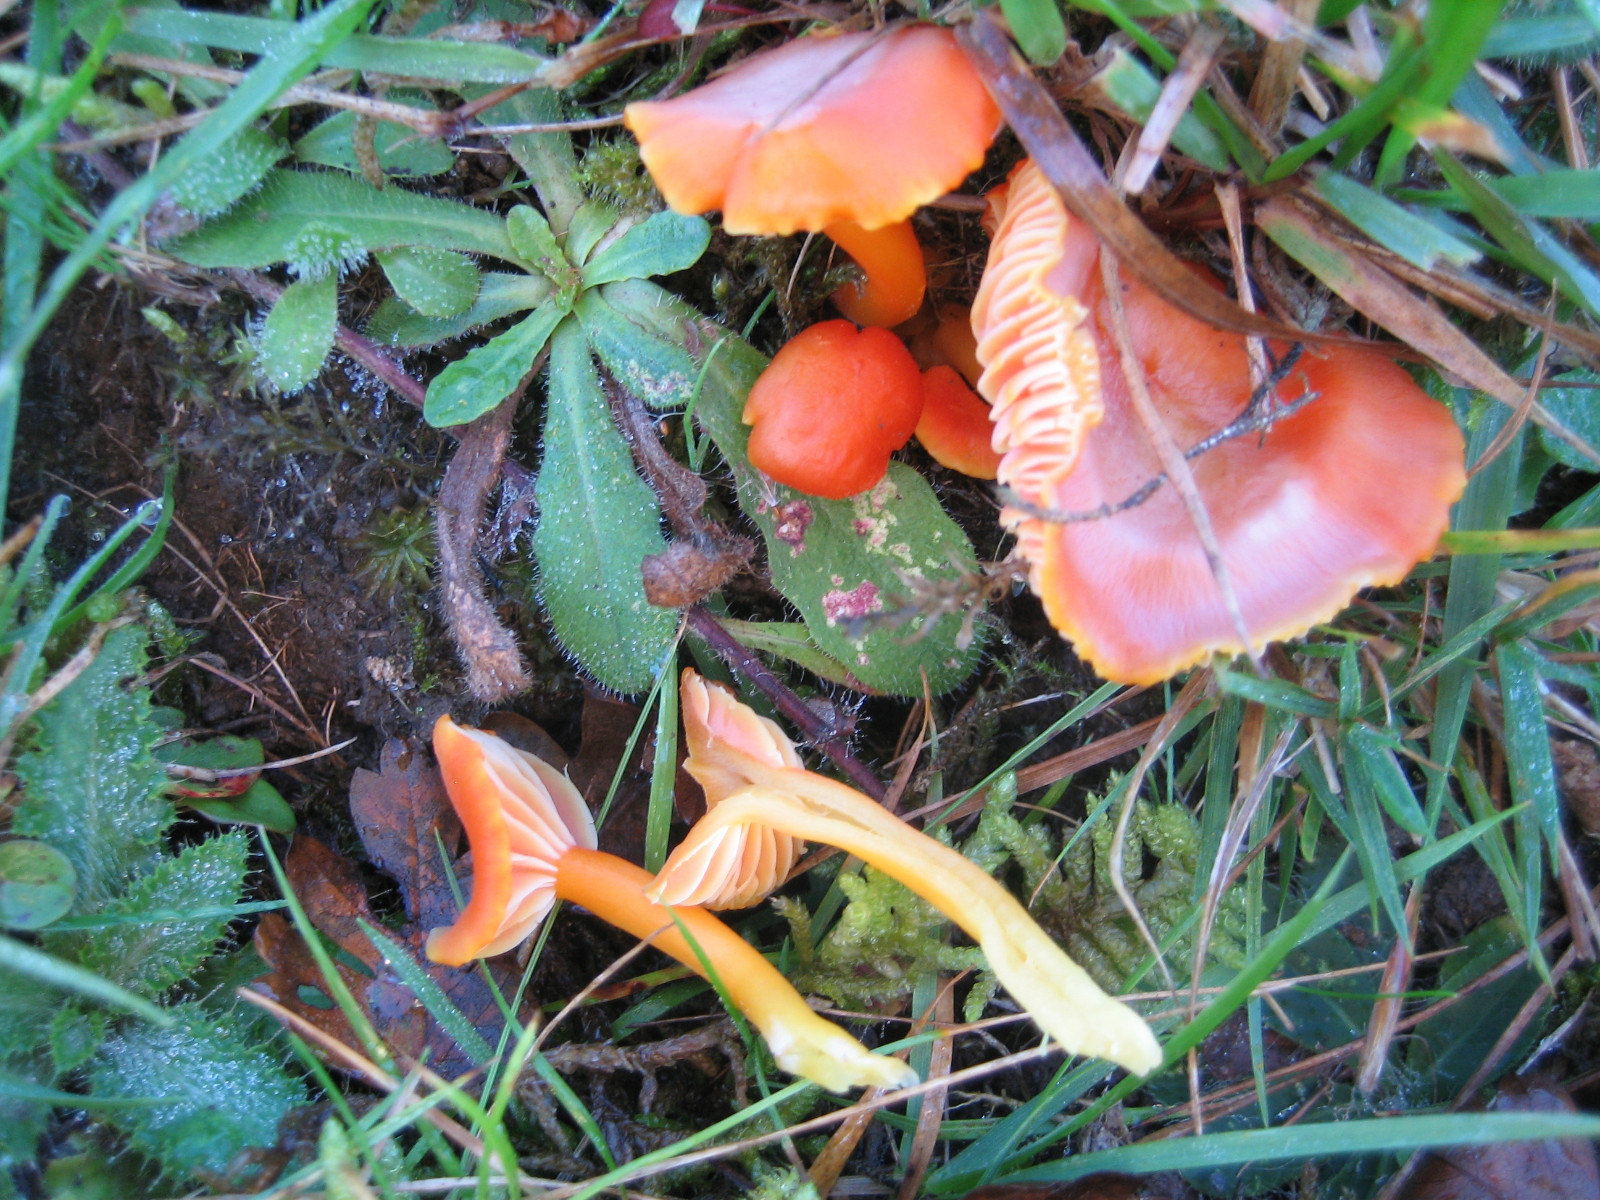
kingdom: Fungi
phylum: Basidiomycota
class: Agaricomycetes
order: Agaricales
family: Hygrophoraceae
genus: Hygrocybe
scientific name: Hygrocybe reidii
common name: honning-vokshat
